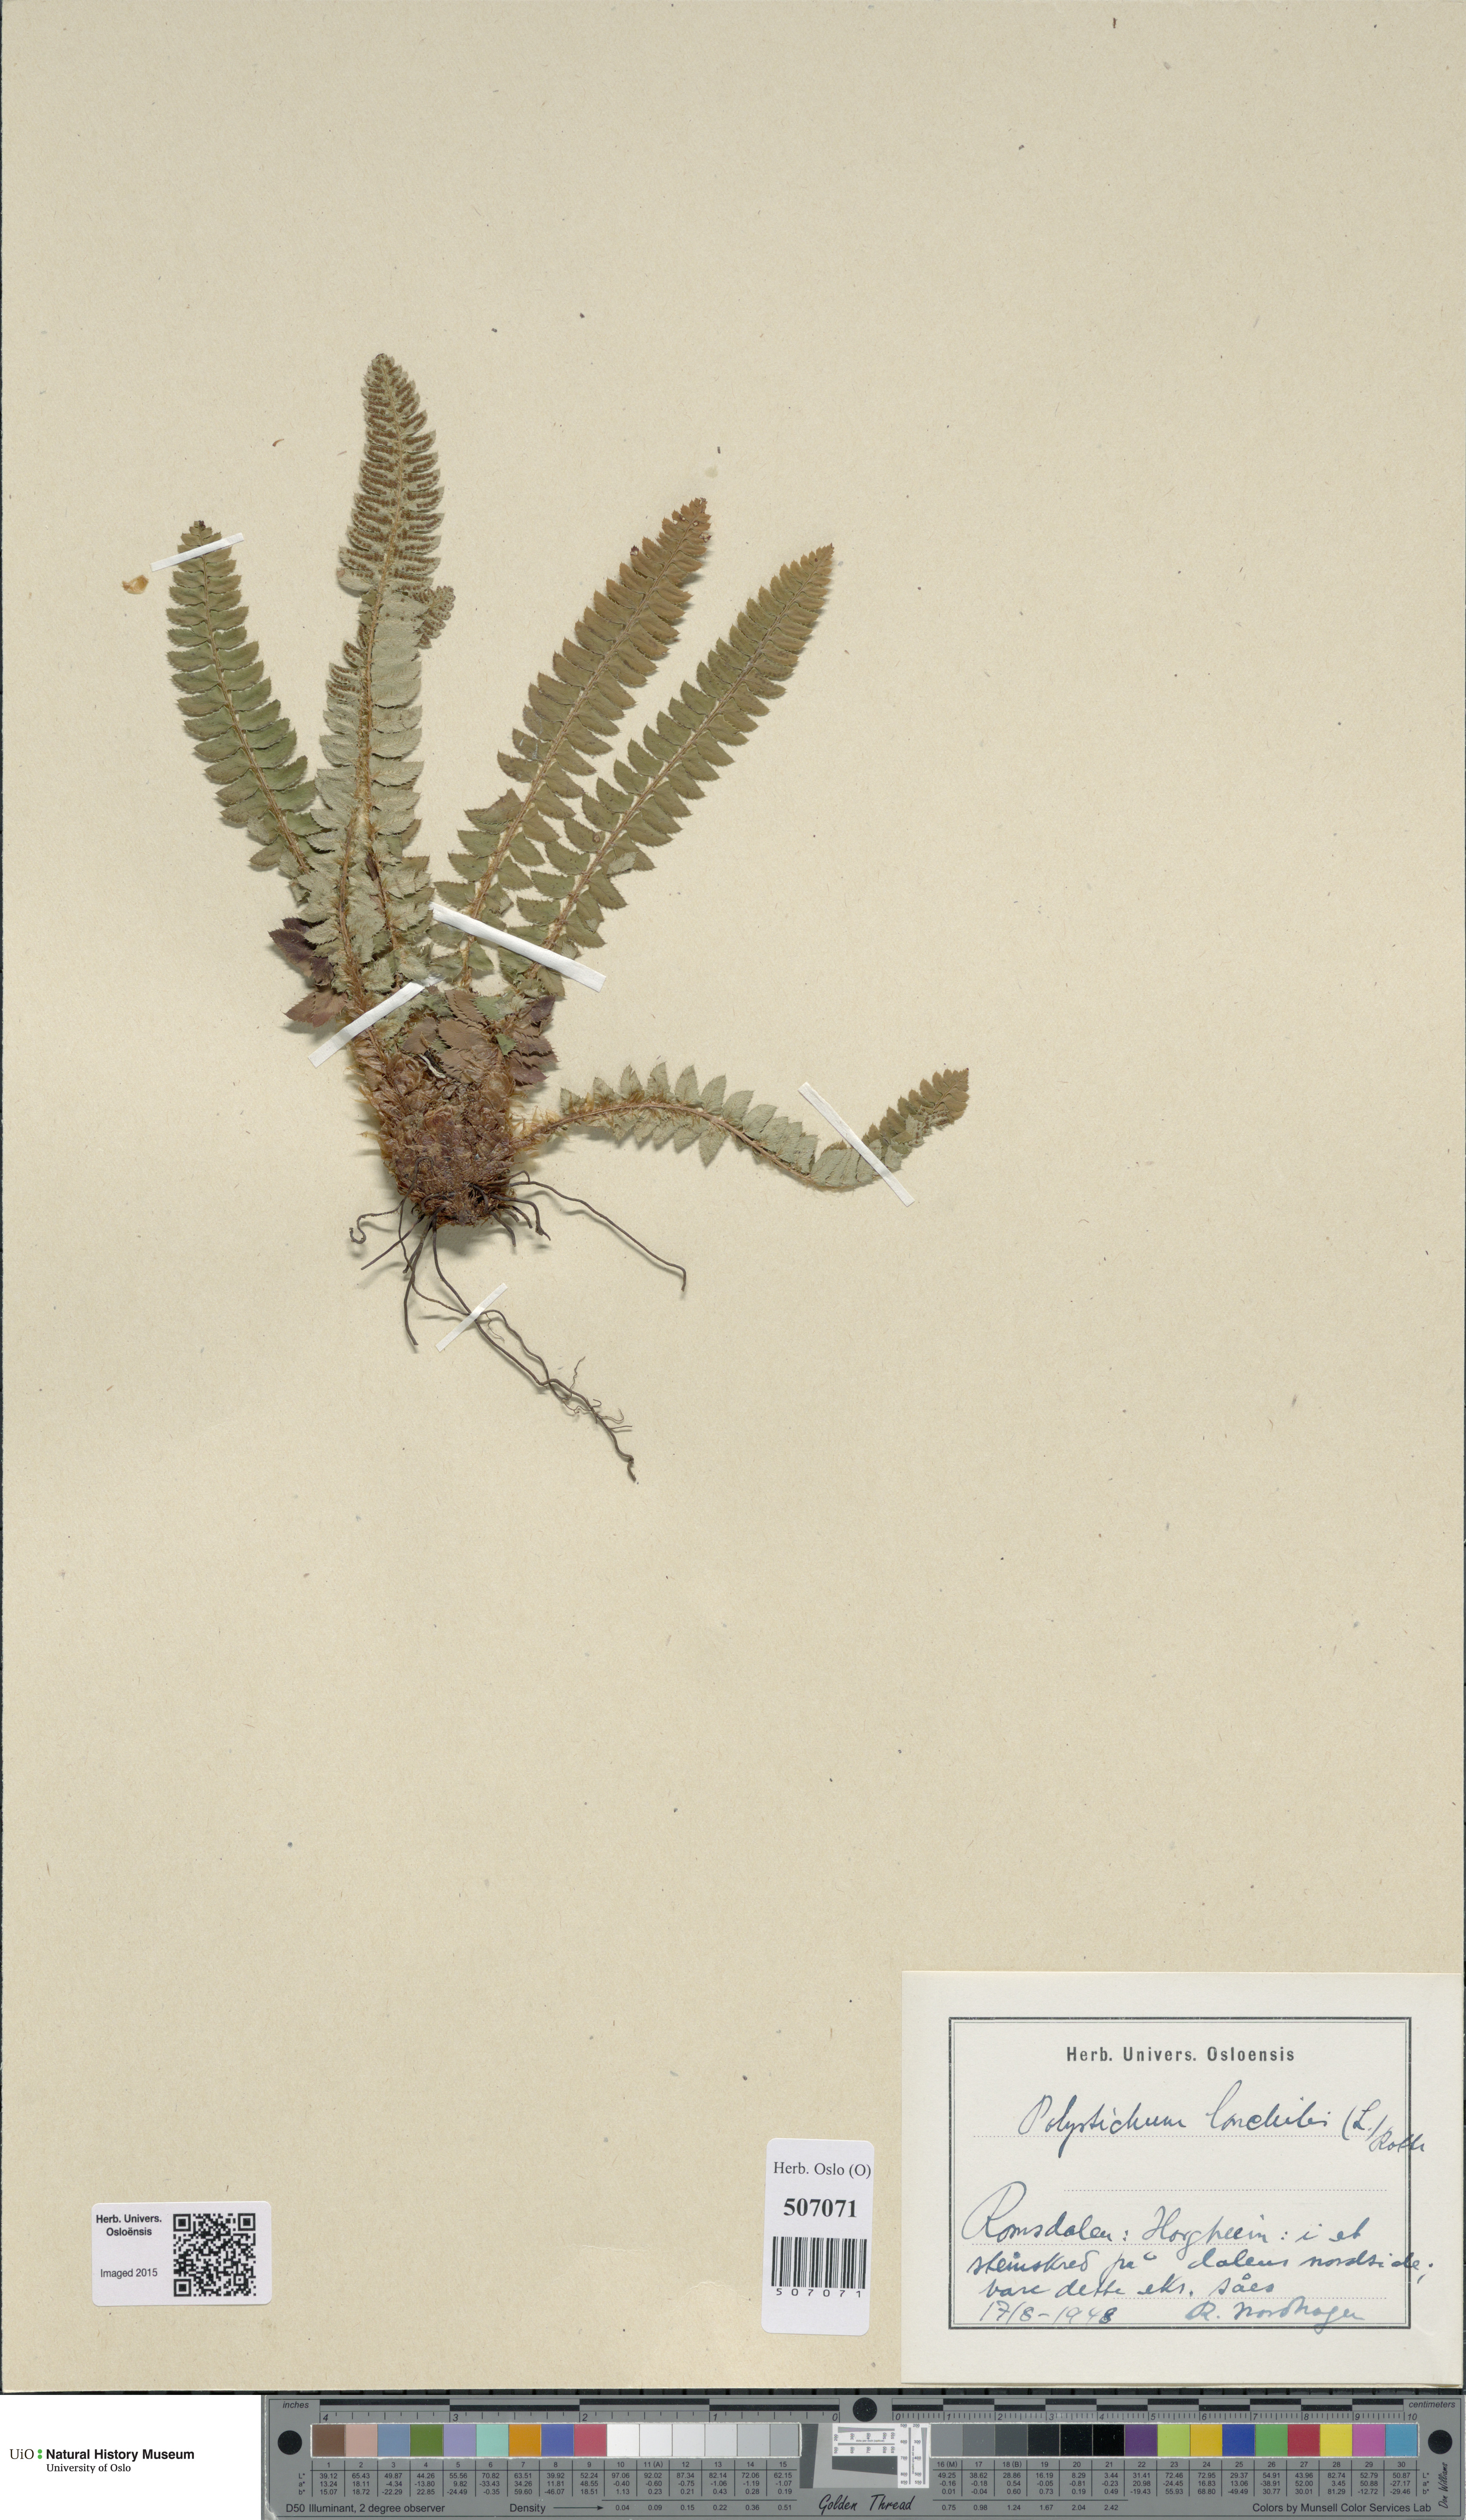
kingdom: Plantae
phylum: Tracheophyta
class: Polypodiopsida
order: Polypodiales
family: Dryopteridaceae
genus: Polystichum
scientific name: Polystichum lonchitis
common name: Holly fern
